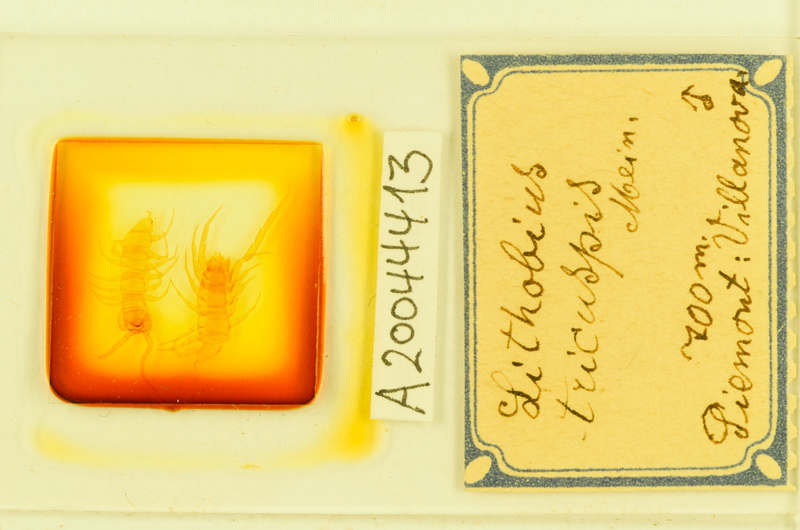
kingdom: Animalia
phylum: Arthropoda
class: Chilopoda
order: Lithobiomorpha
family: Lithobiidae
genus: Lithobius
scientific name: Lithobius tricuspis
